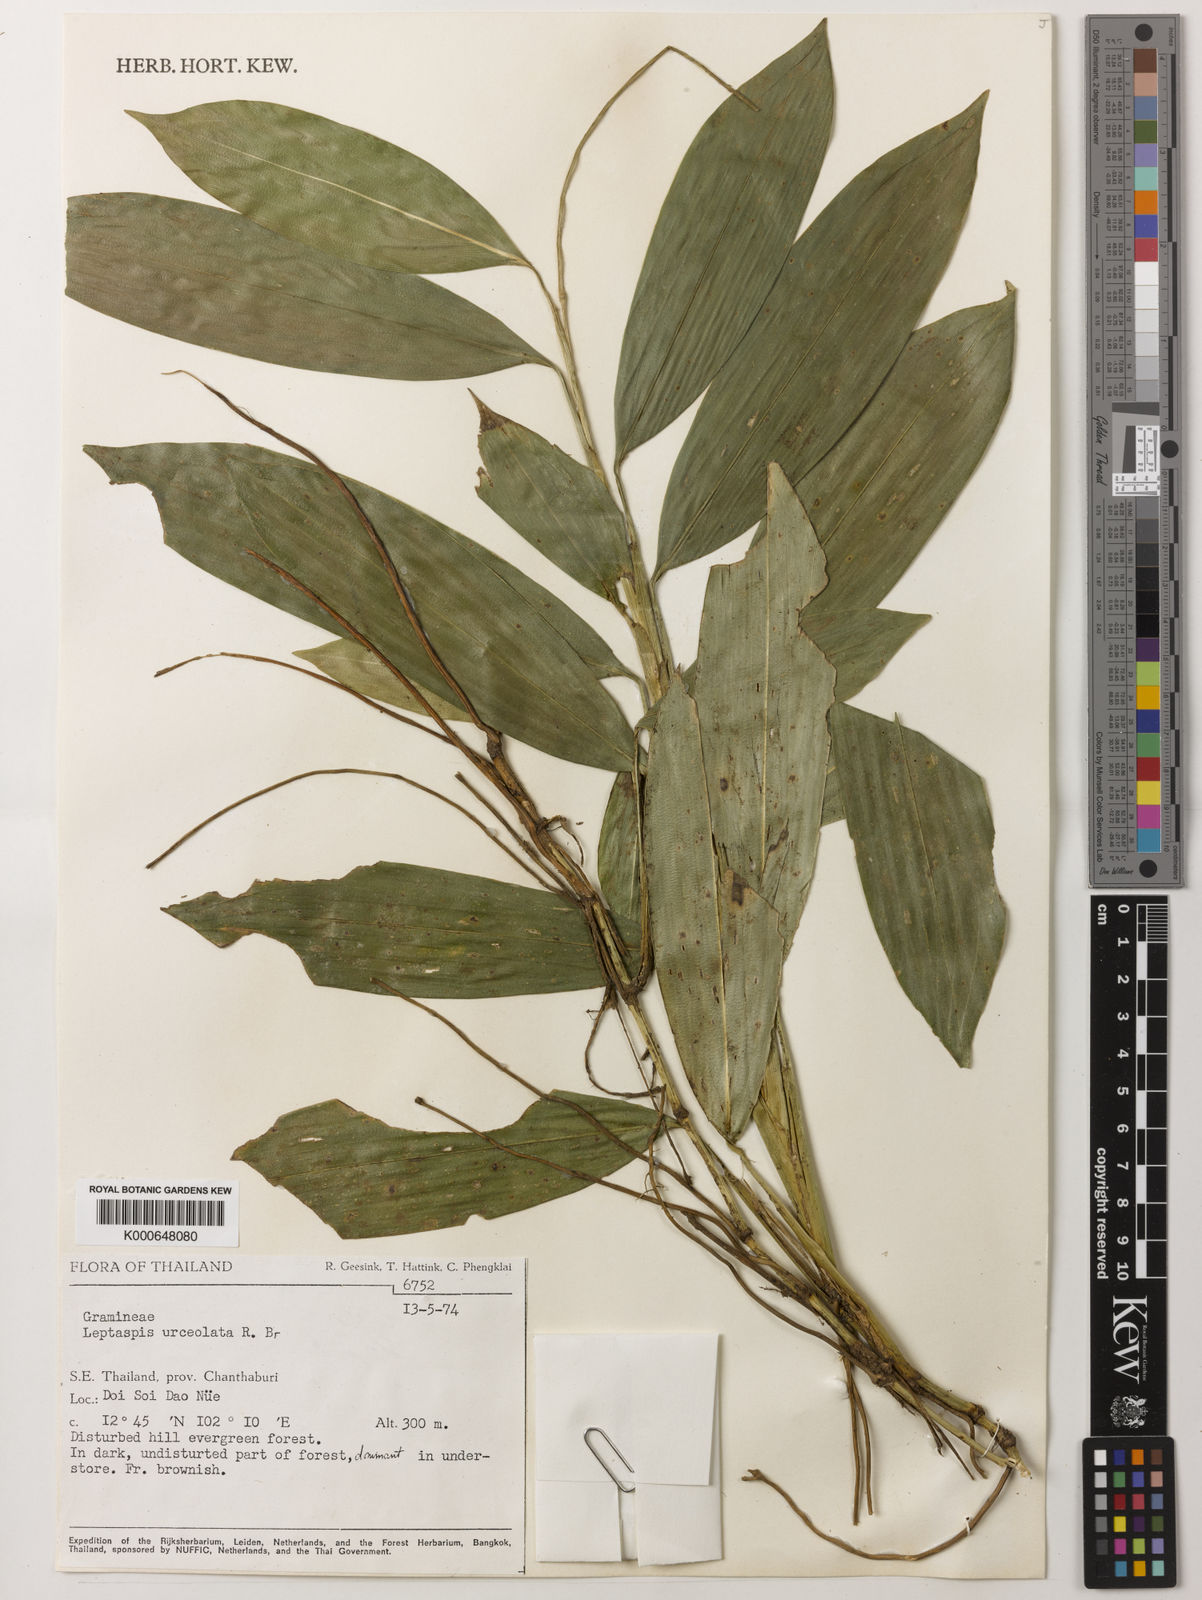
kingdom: Plantae
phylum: Tracheophyta
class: Liliopsida
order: Poales
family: Poaceae
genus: Scrotochloa
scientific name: Scrotochloa urceolata
